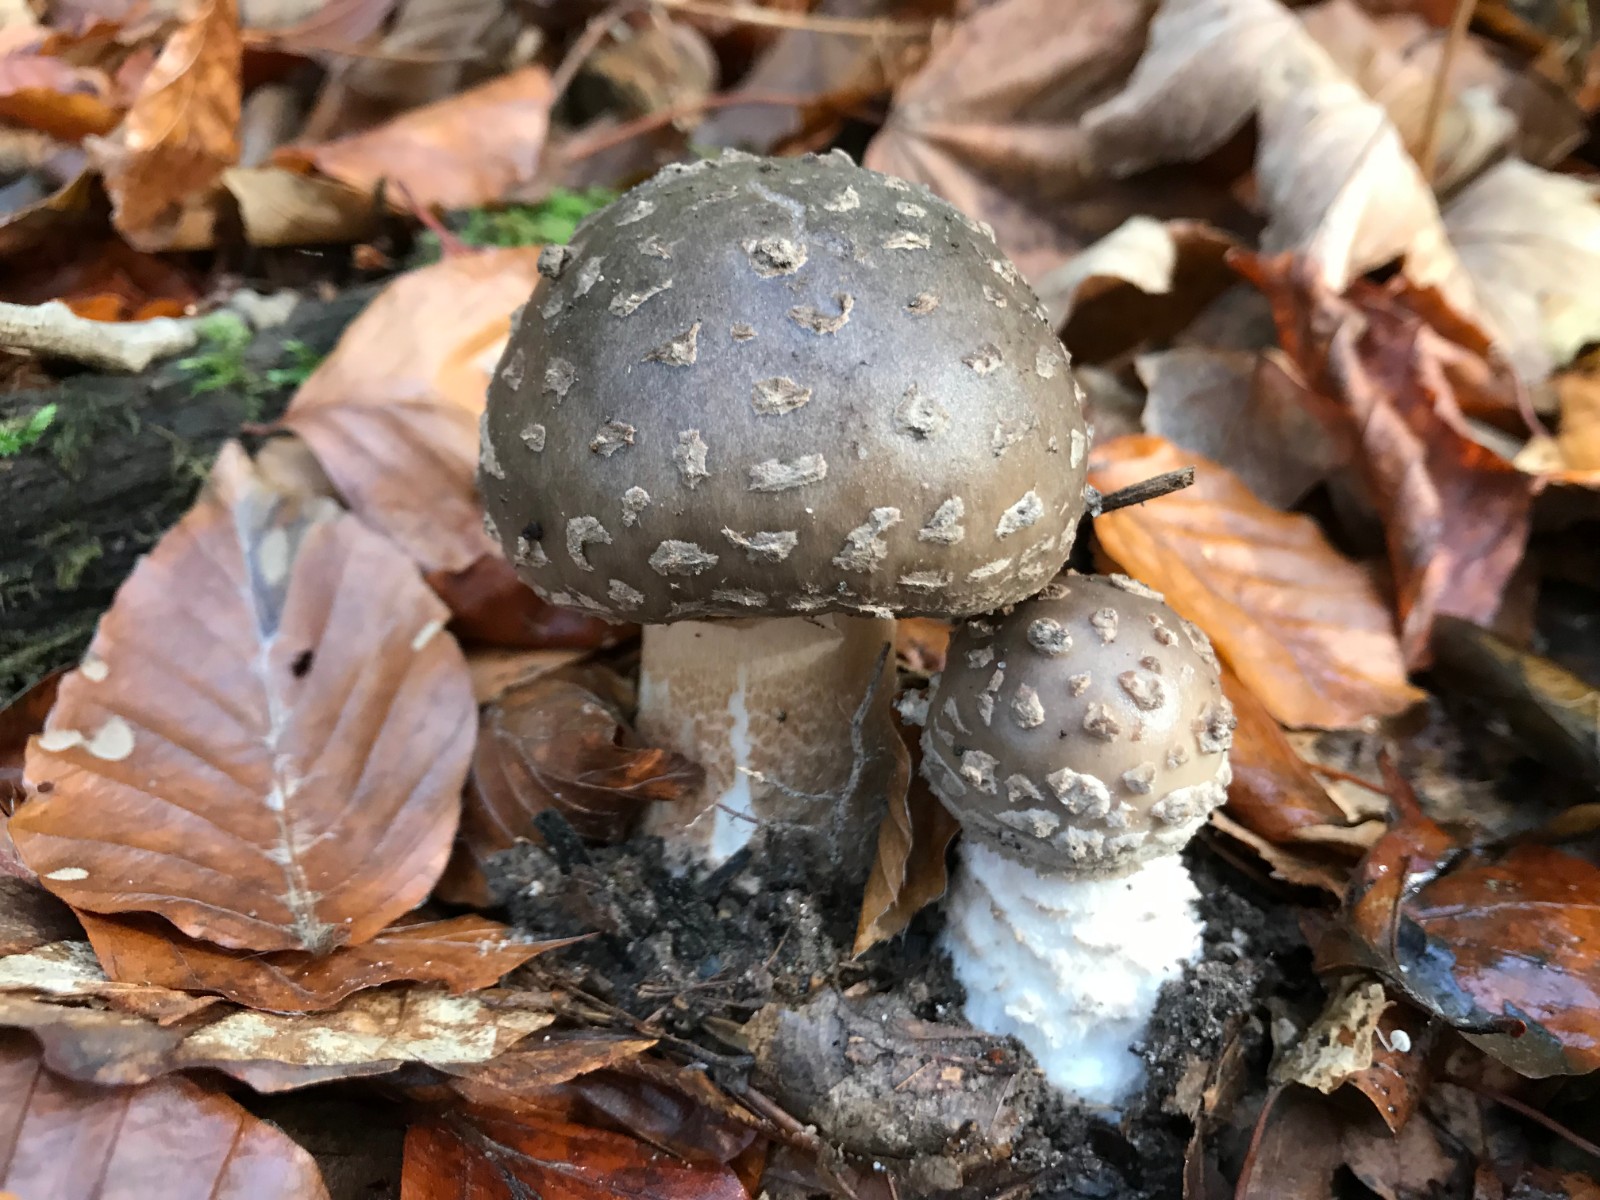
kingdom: Fungi
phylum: Basidiomycota
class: Agaricomycetes
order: Agaricales
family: Amanitaceae
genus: Amanita
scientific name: Amanita
